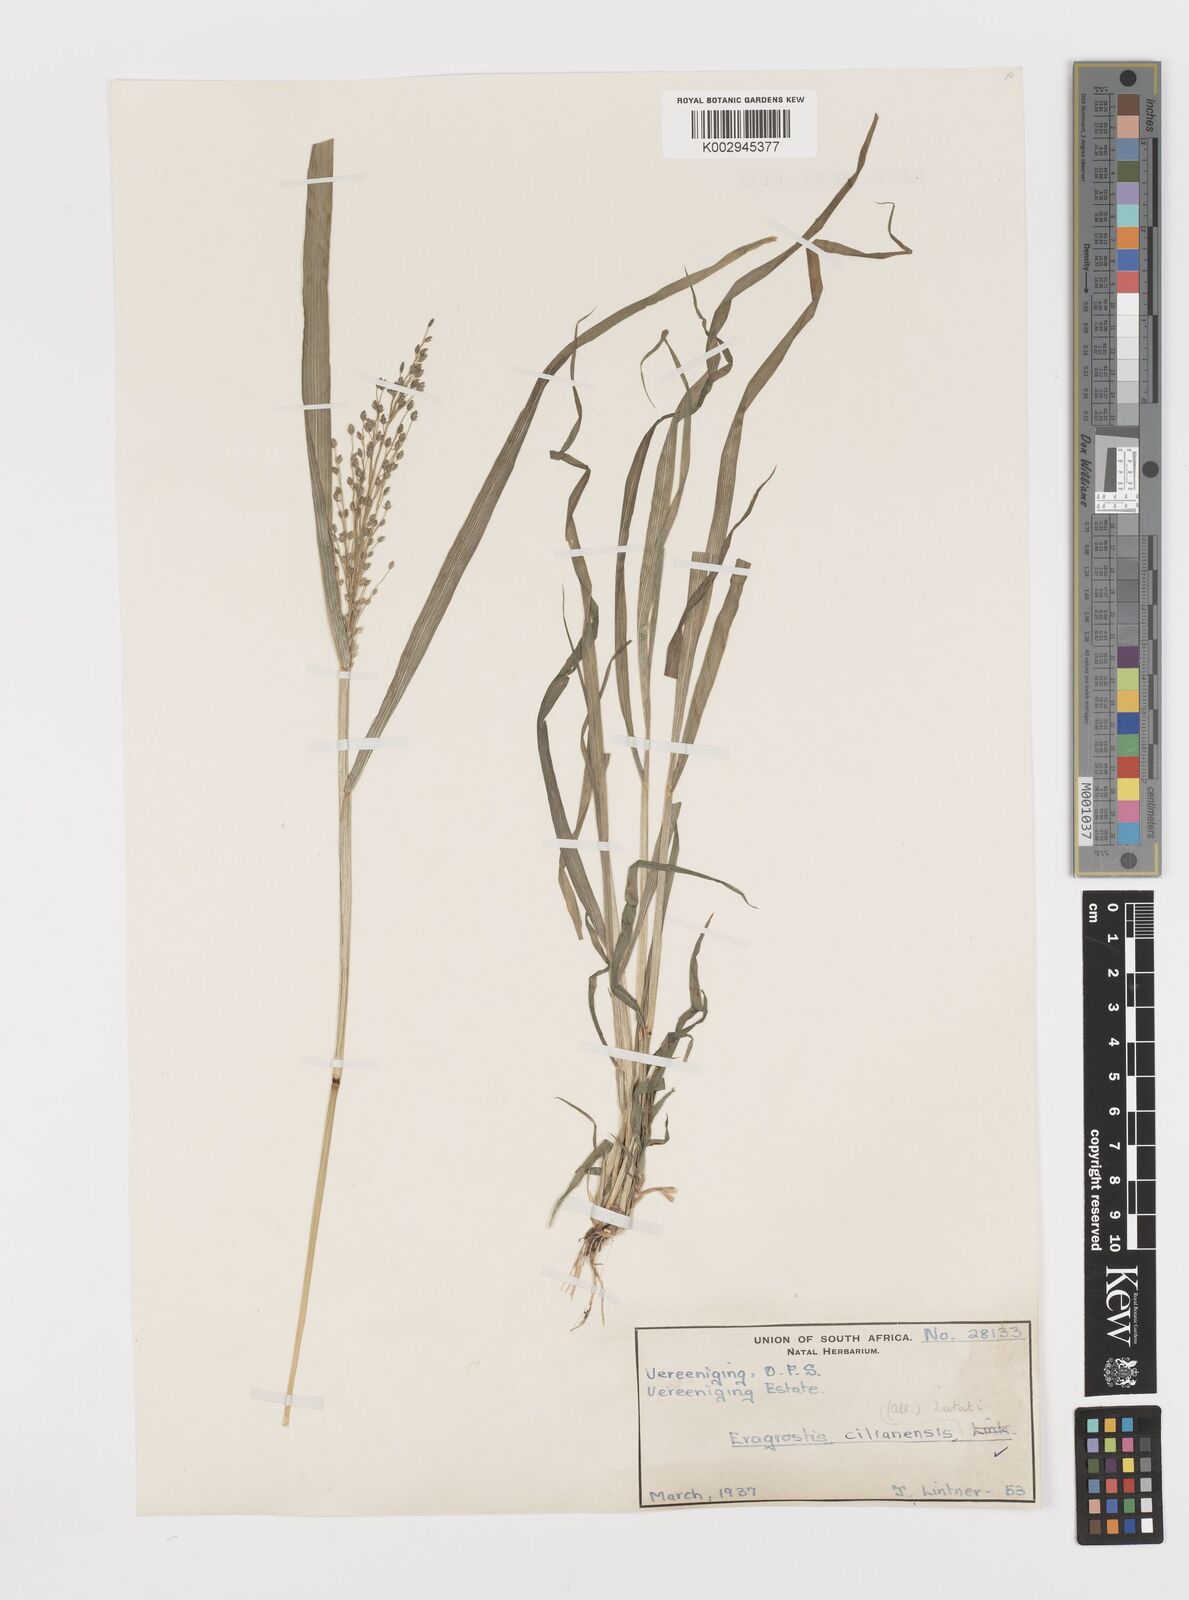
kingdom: Plantae
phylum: Tracheophyta
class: Liliopsida
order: Poales
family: Poaceae
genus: Eragrostis
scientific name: Eragrostis cilianensis
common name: Stinkgrass
